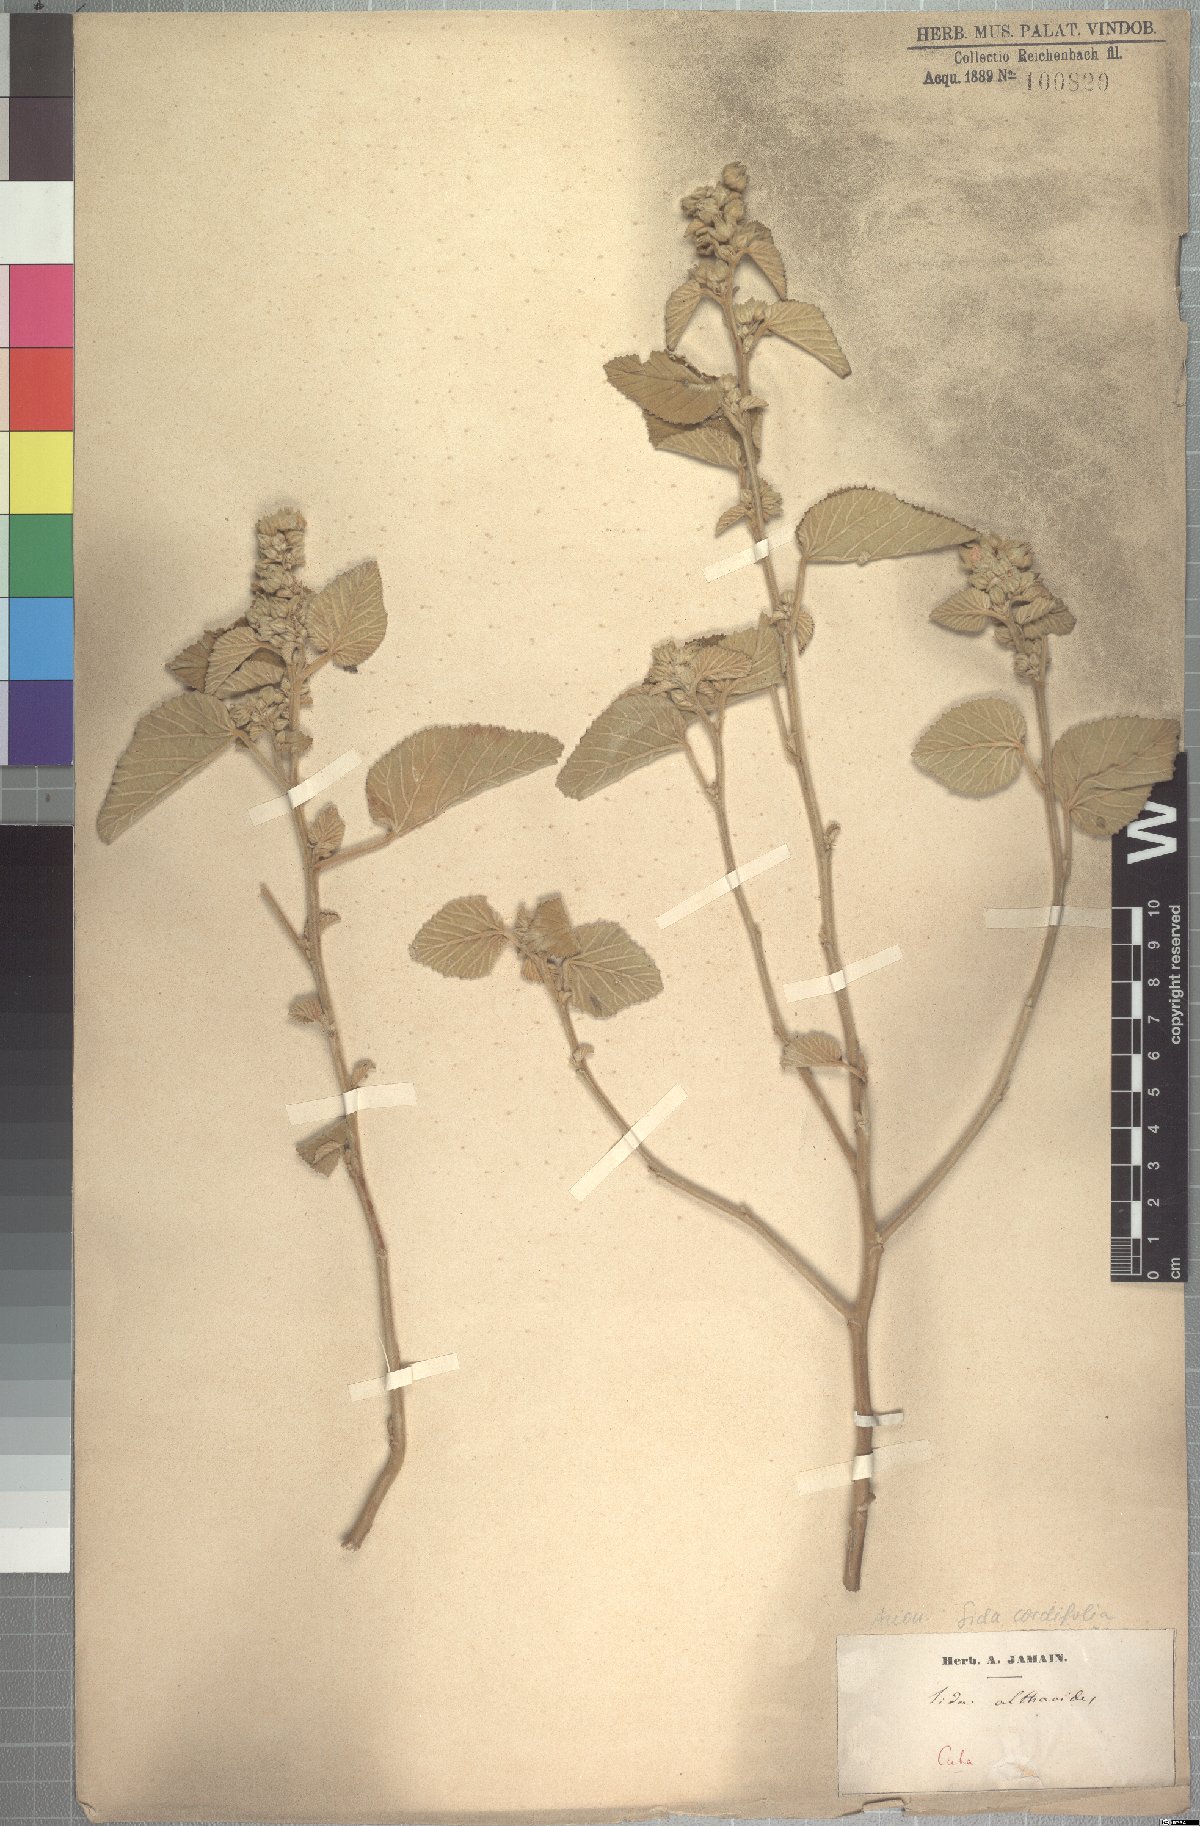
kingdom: Plantae
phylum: Tracheophyta
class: Magnoliopsida
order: Malvales
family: Malvaceae
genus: Sida
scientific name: Sida cordifolia
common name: Ilima
